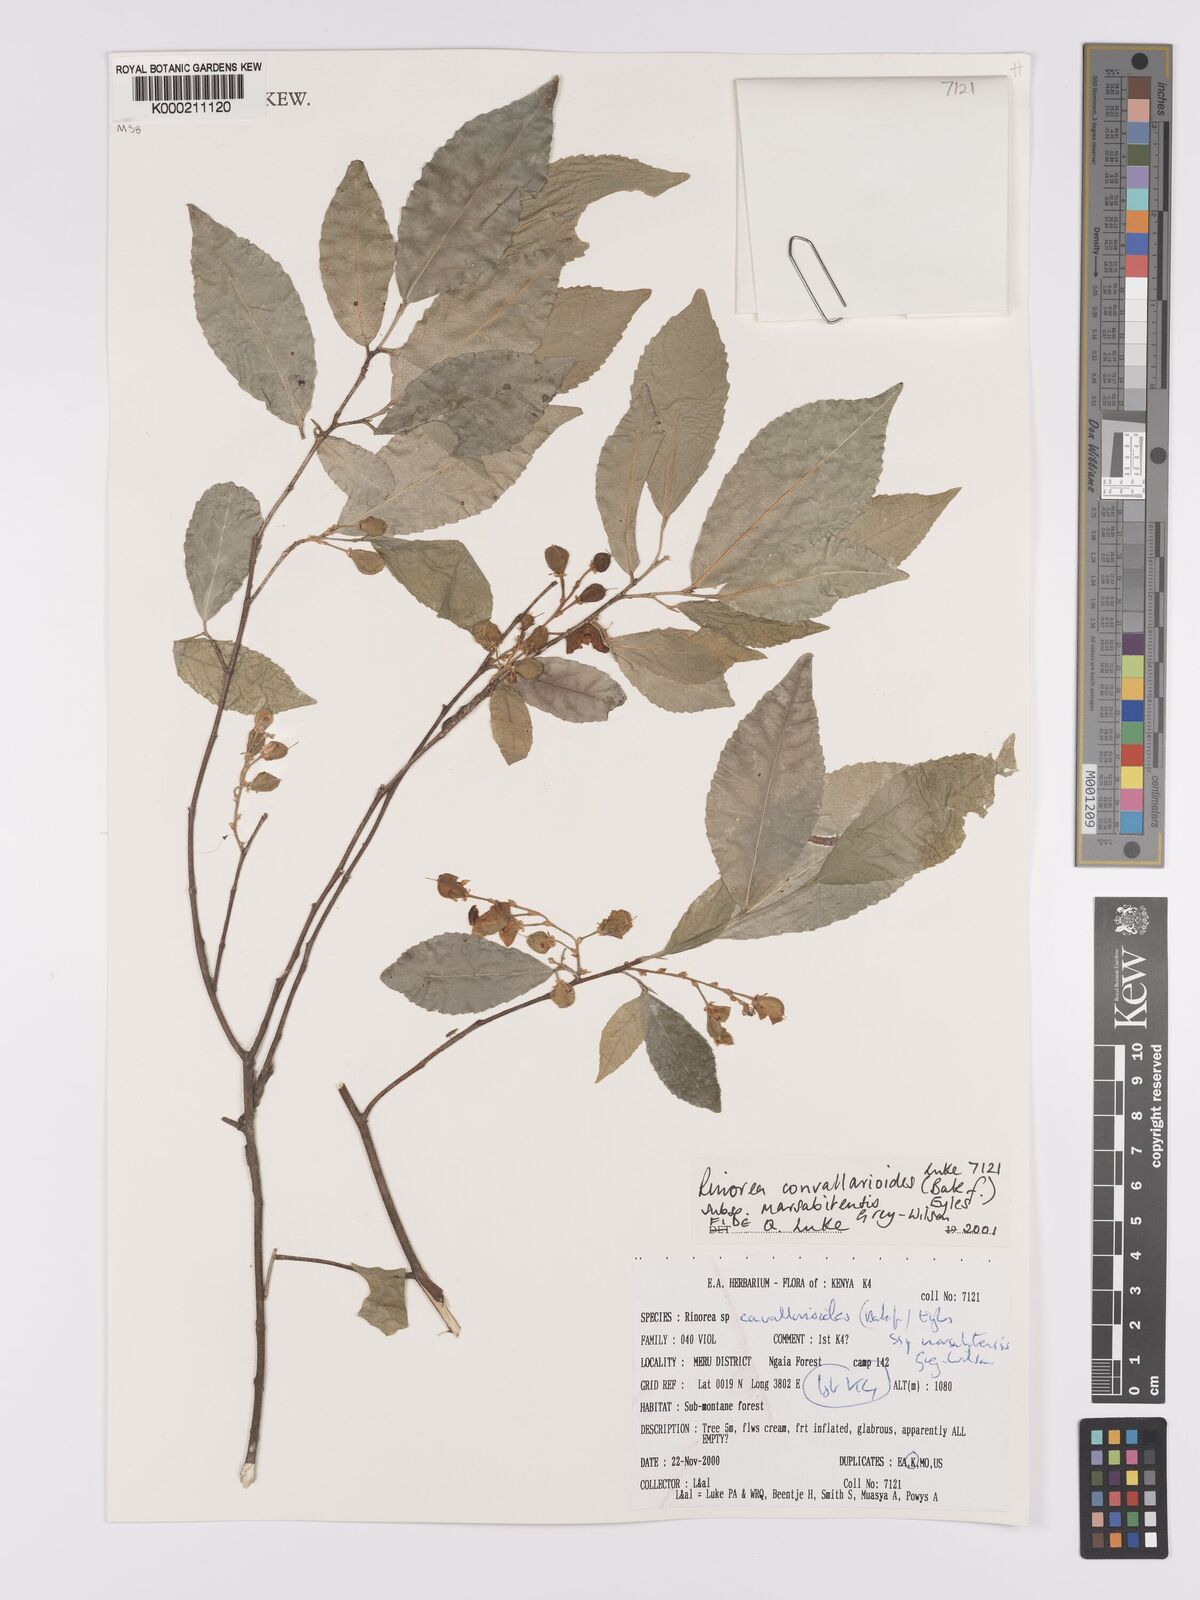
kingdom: Plantae
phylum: Tracheophyta
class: Magnoliopsida
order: Malpighiales
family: Violaceae
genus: Rinorea
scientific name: Rinorea convallarioides
